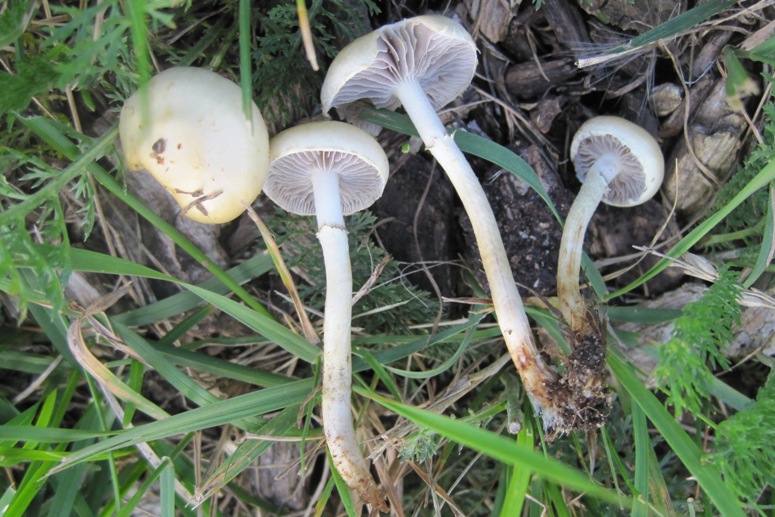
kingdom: Fungi
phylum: Basidiomycota
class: Agaricomycetes
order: Agaricales
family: Strophariaceae
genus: Leratiomyces
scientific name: Leratiomyces percevalii
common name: træflis-bredblad
